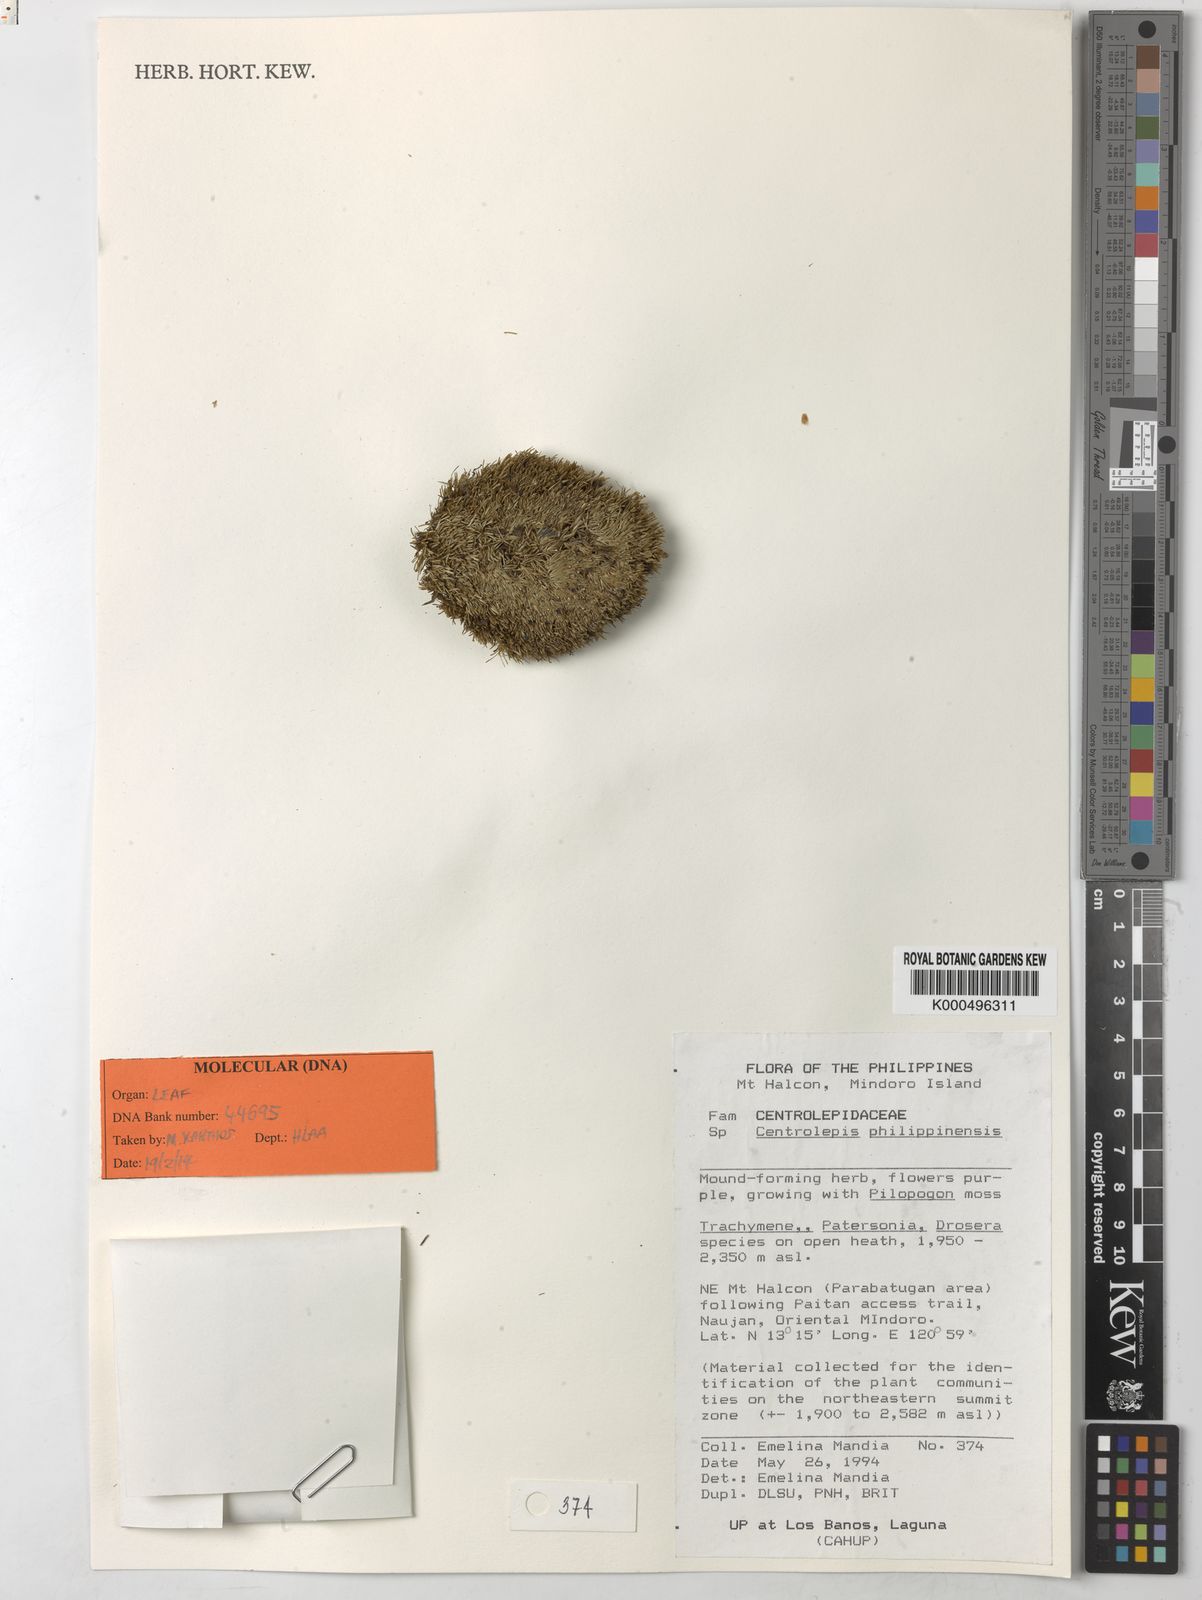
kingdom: Plantae
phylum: Tracheophyta
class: Liliopsida
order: Poales
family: Restionaceae
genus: Centrolepis
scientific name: Centrolepis philippinensis
